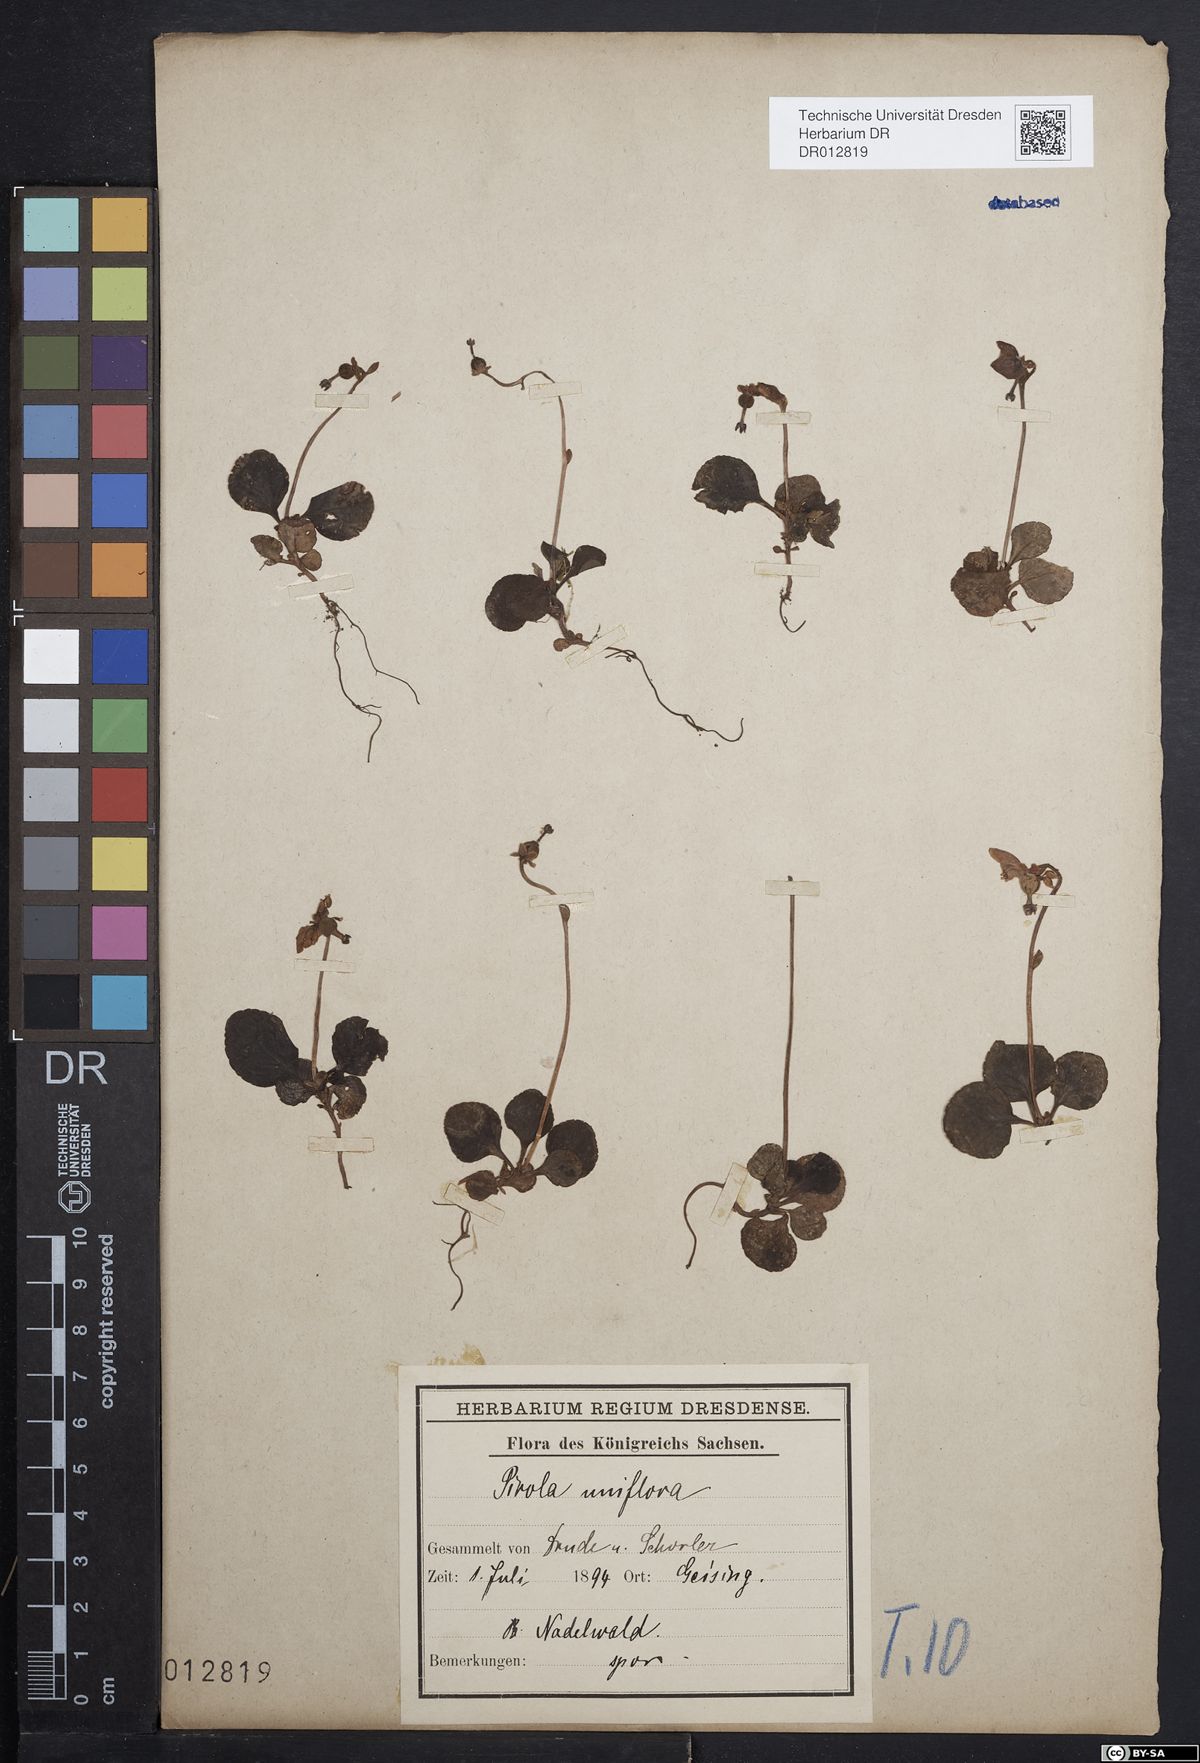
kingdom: Plantae
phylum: Tracheophyta
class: Magnoliopsida
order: Ericales
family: Ericaceae
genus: Moneses
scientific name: Moneses uniflora
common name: One-flowered wintergreen
